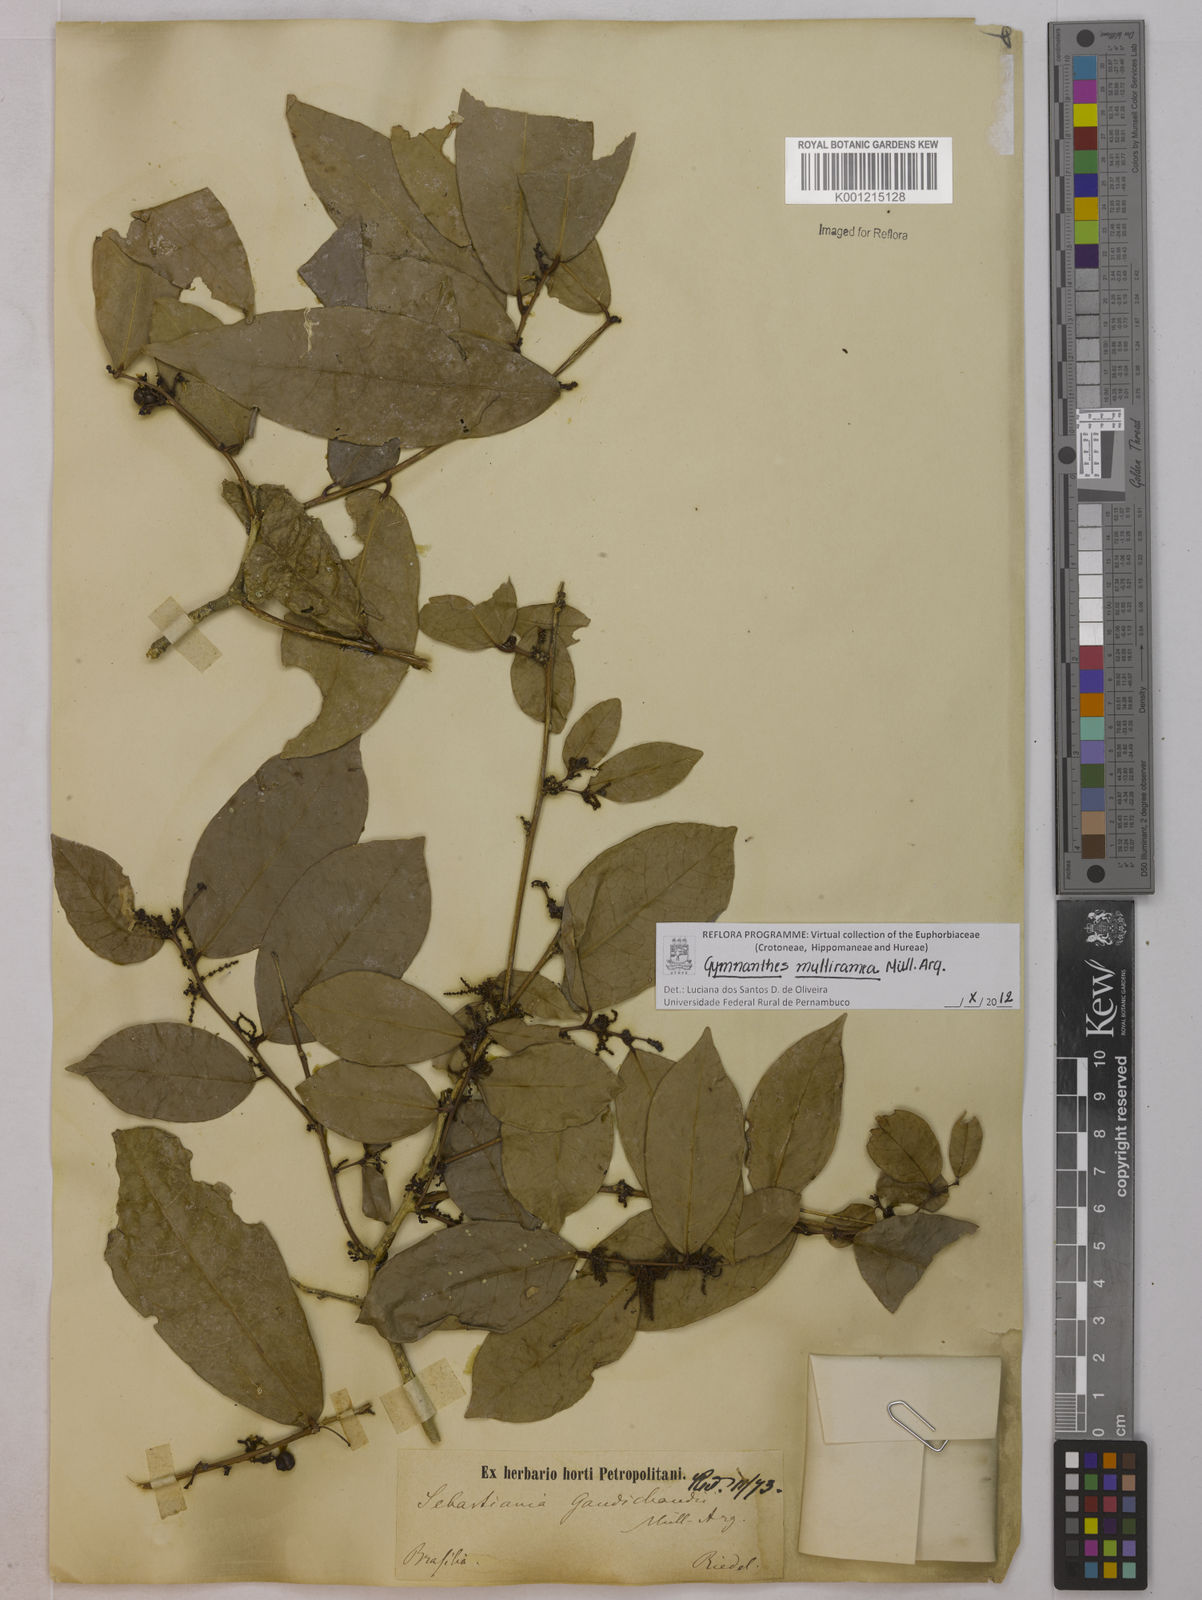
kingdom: Plantae
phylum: Tracheophyta
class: Magnoliopsida
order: Malpighiales
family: Euphorbiaceae
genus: Gymnanthes
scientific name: Gymnanthes
